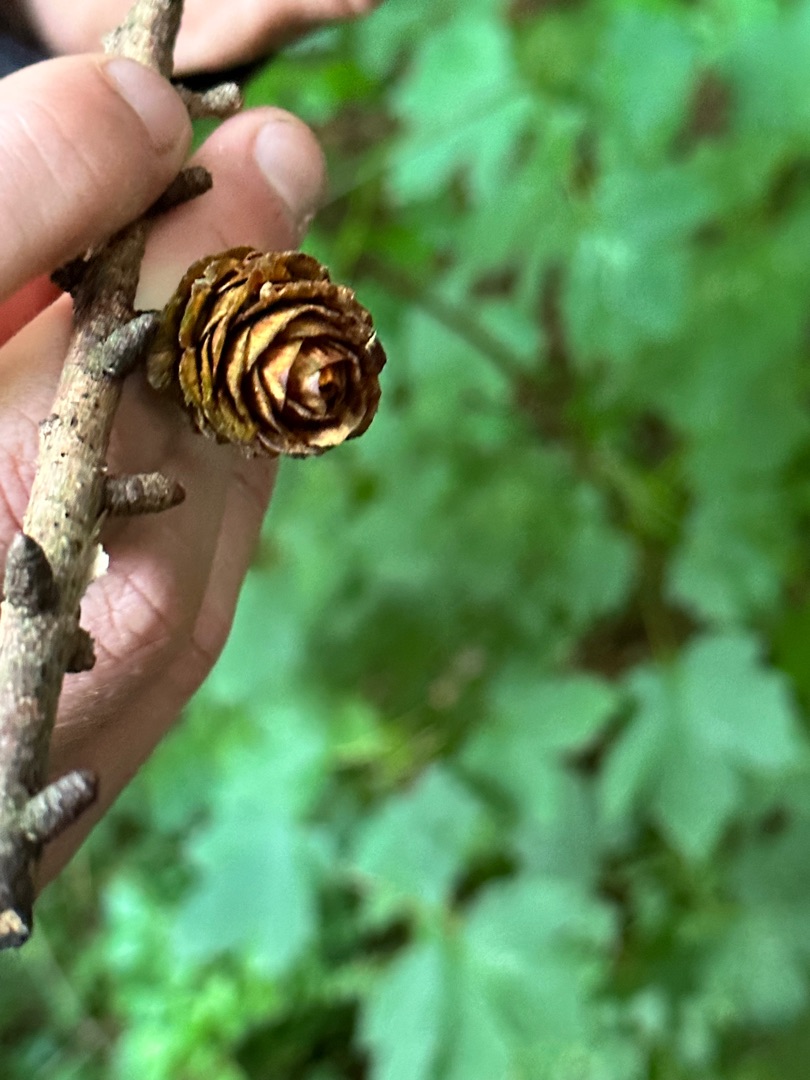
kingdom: Plantae
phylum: Tracheophyta
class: Pinopsida
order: Pinales
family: Pinaceae
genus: Larix
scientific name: Larix marschlinsii
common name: Hybrid-lærk
